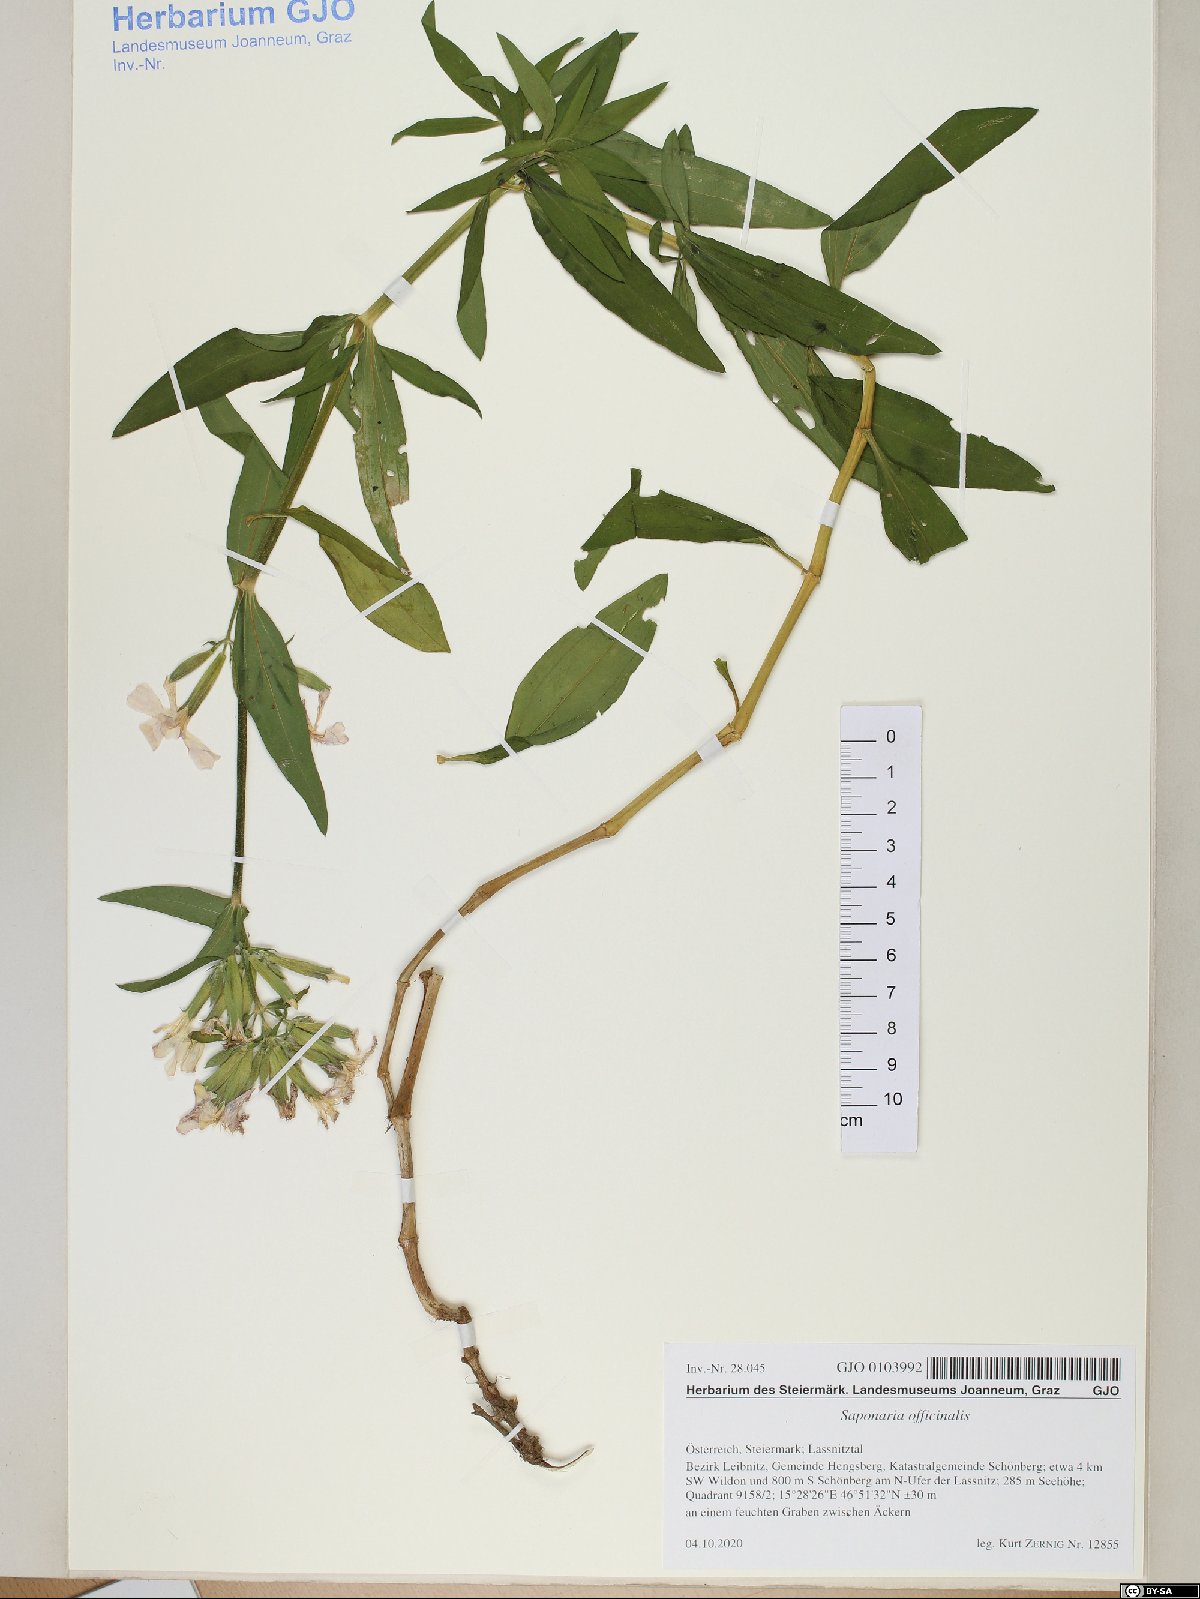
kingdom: Plantae
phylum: Tracheophyta
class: Magnoliopsida
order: Caryophyllales
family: Caryophyllaceae
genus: Saponaria
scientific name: Saponaria officinalis
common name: Soapwort
